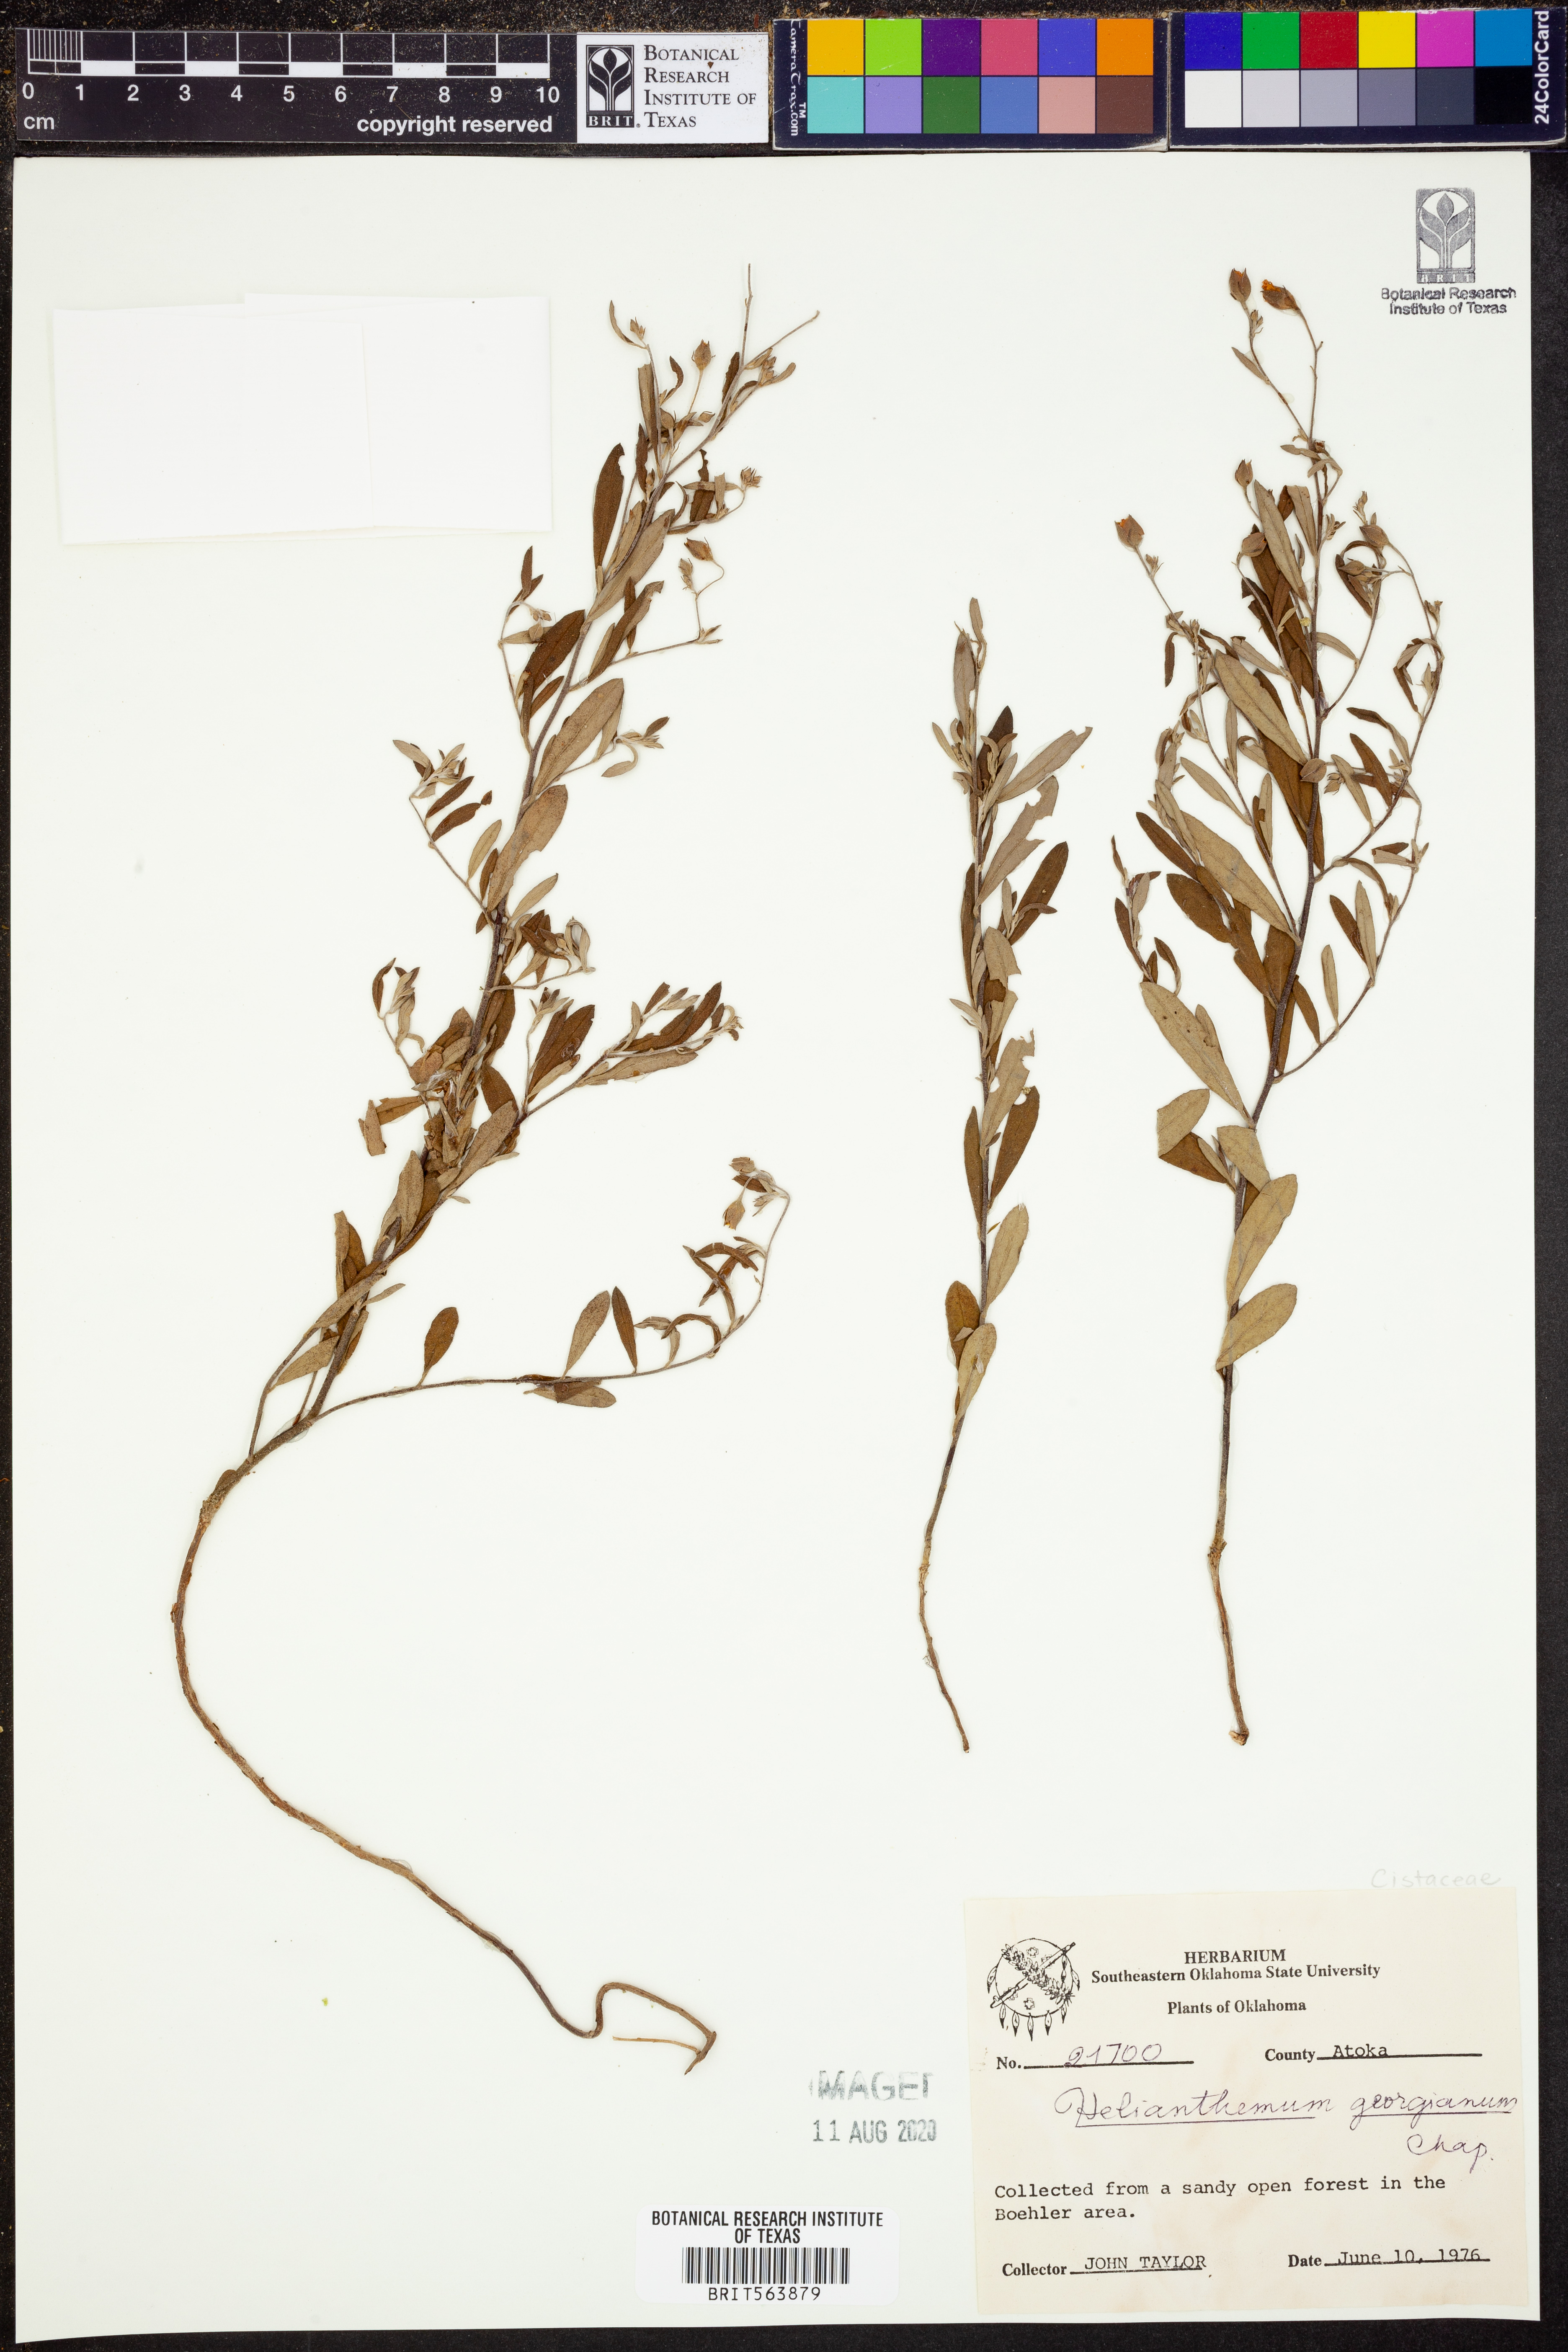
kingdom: Plantae
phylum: Tracheophyta
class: Magnoliopsida
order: Malvales
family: Cistaceae
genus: Crocanthemum
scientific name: Crocanthemum georgianum
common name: Georgia frostweed
